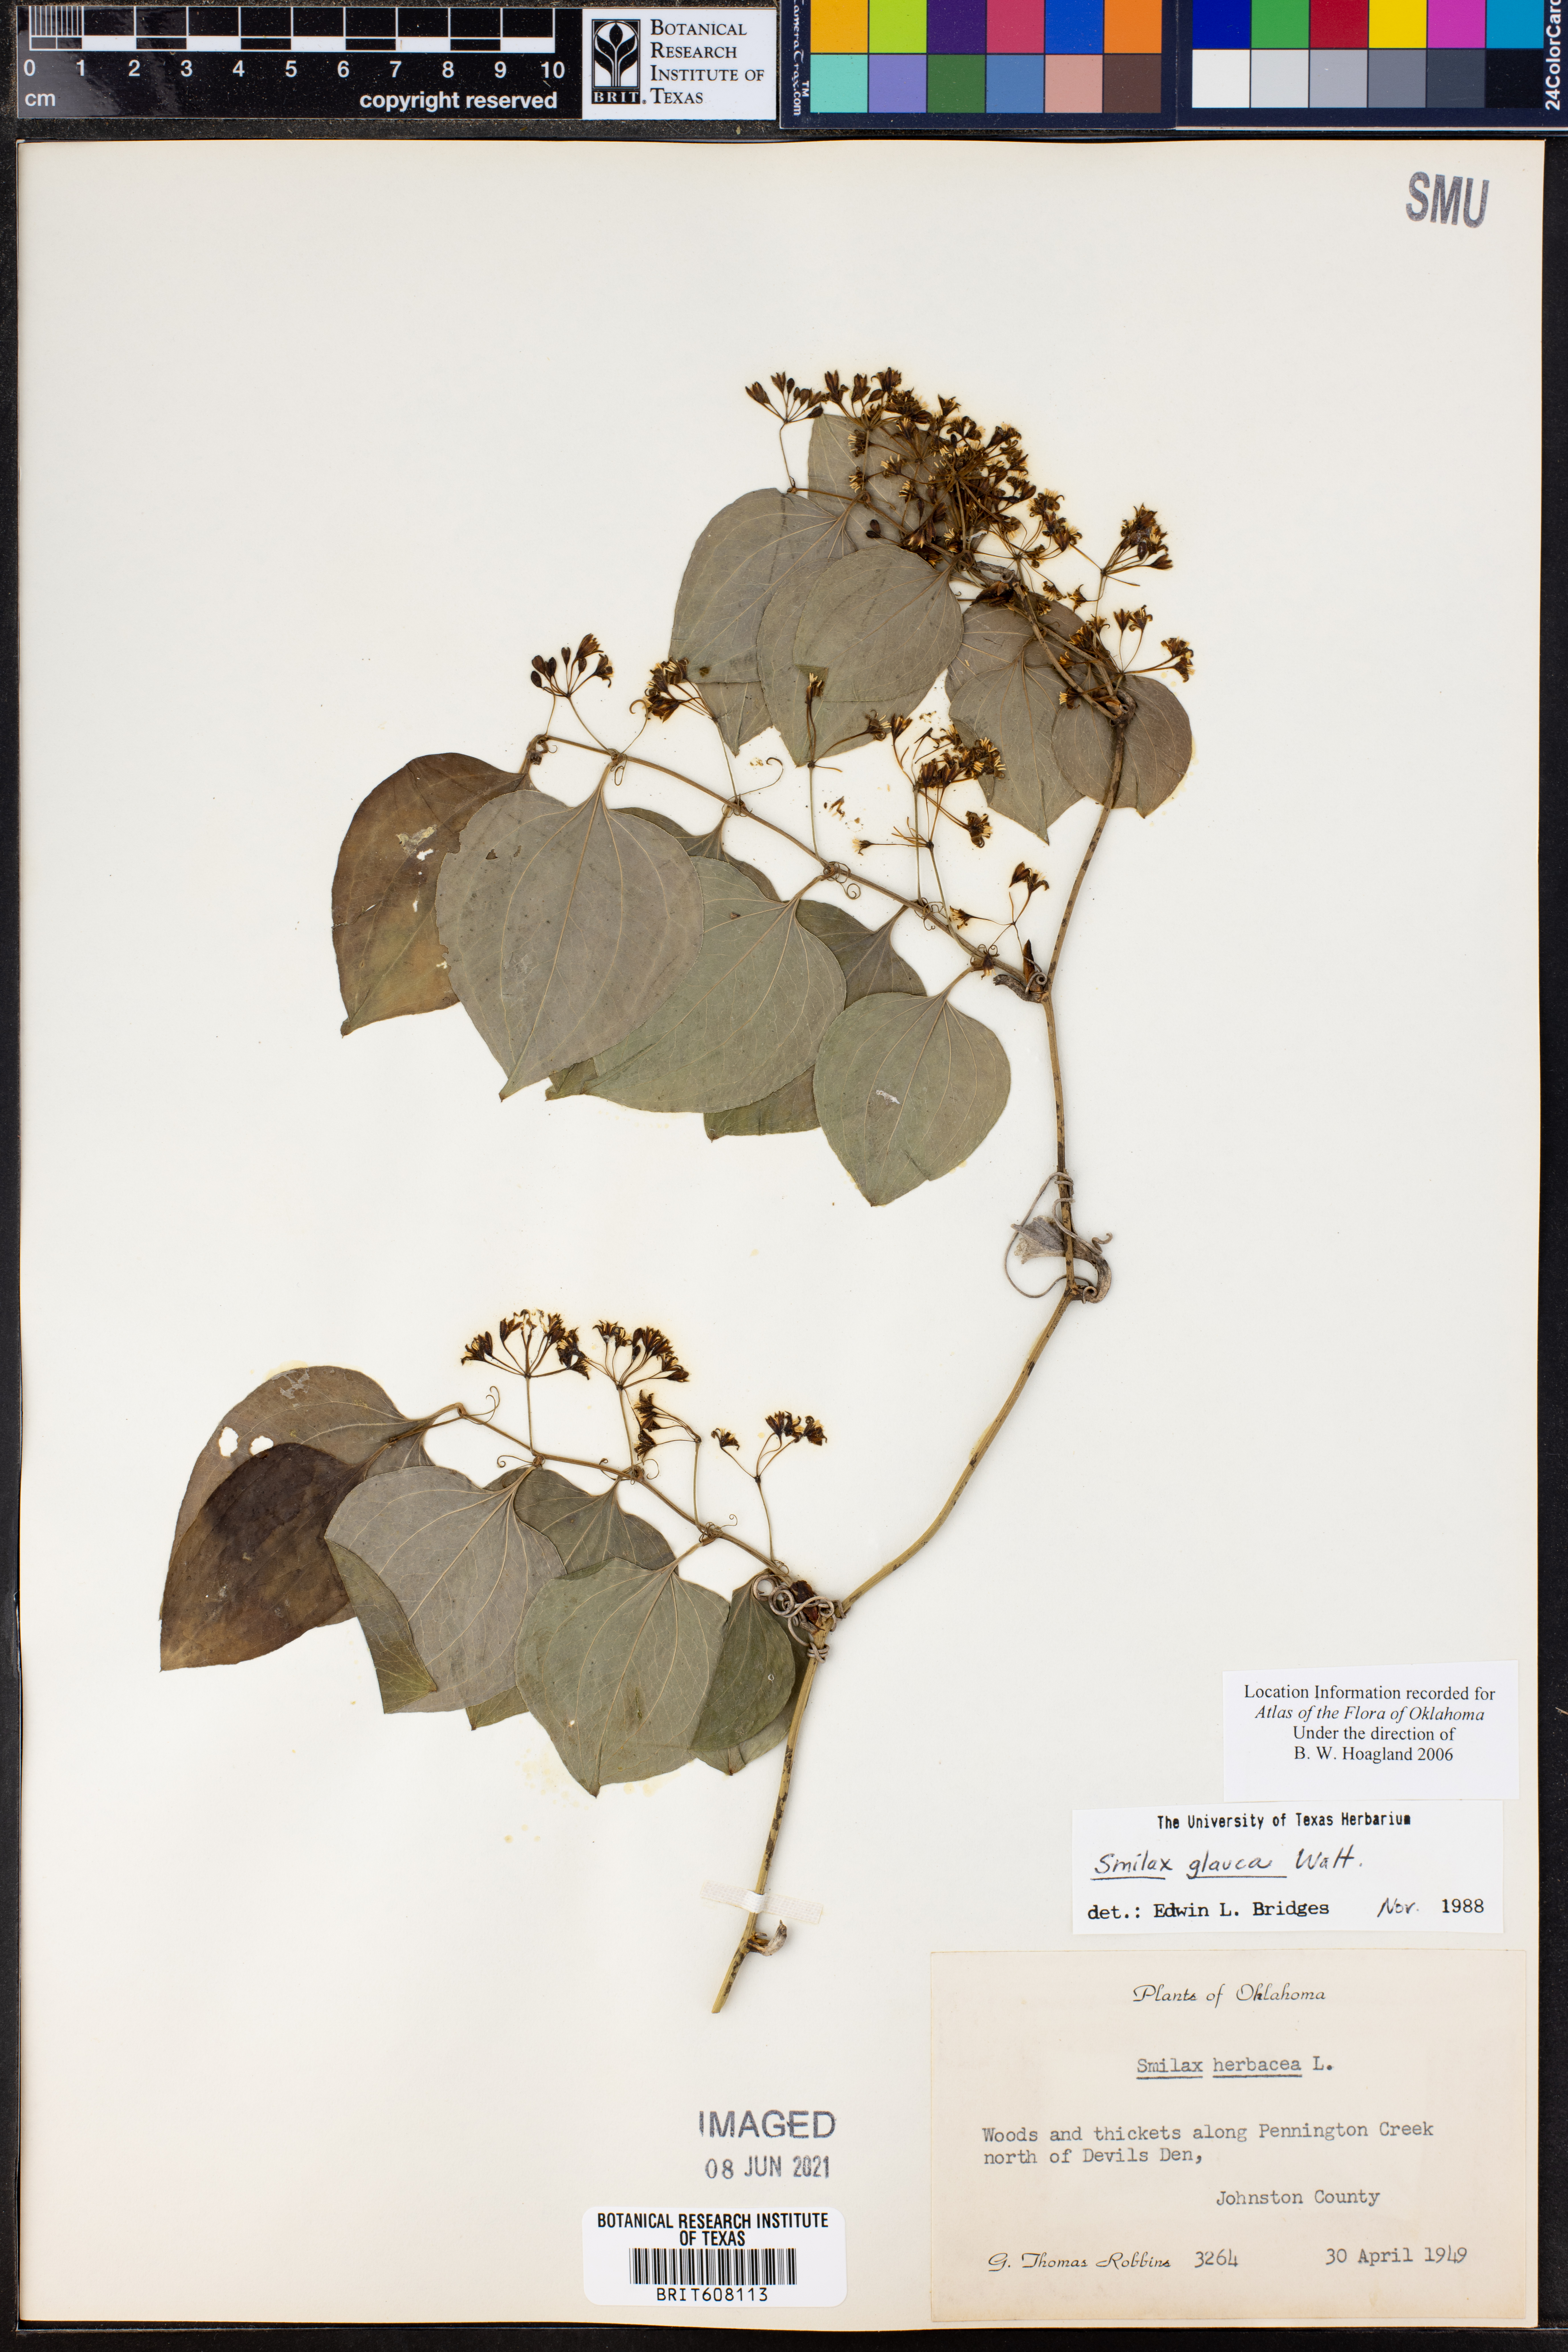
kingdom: Plantae
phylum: Tracheophyta
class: Liliopsida
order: Liliales
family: Smilacaceae
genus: Smilax
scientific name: Smilax glauca
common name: Cat greenbrier
